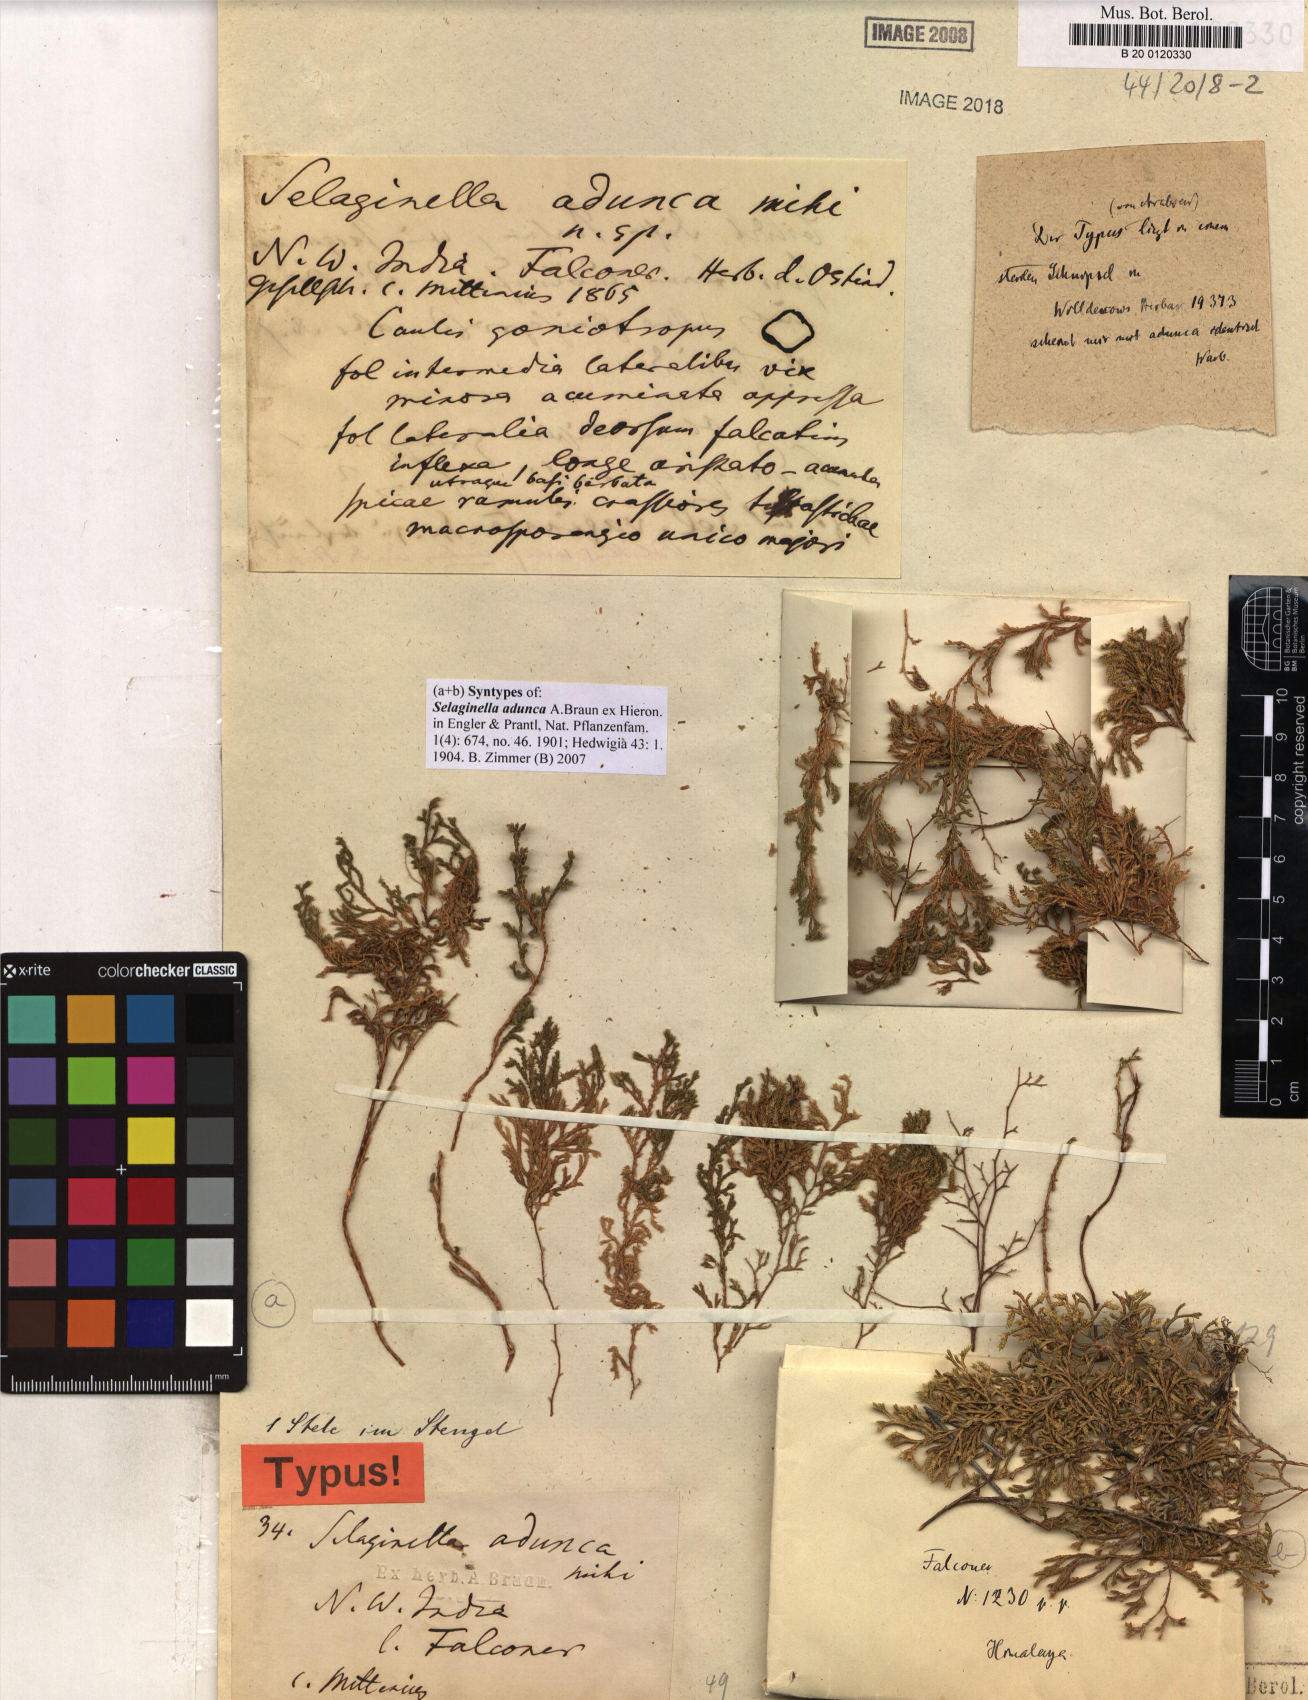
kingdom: Plantae
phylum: Tracheophyta
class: Lycopodiopsida
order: Selaginellales
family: Selaginellaceae
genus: Selaginella
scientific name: Selaginella adunca
